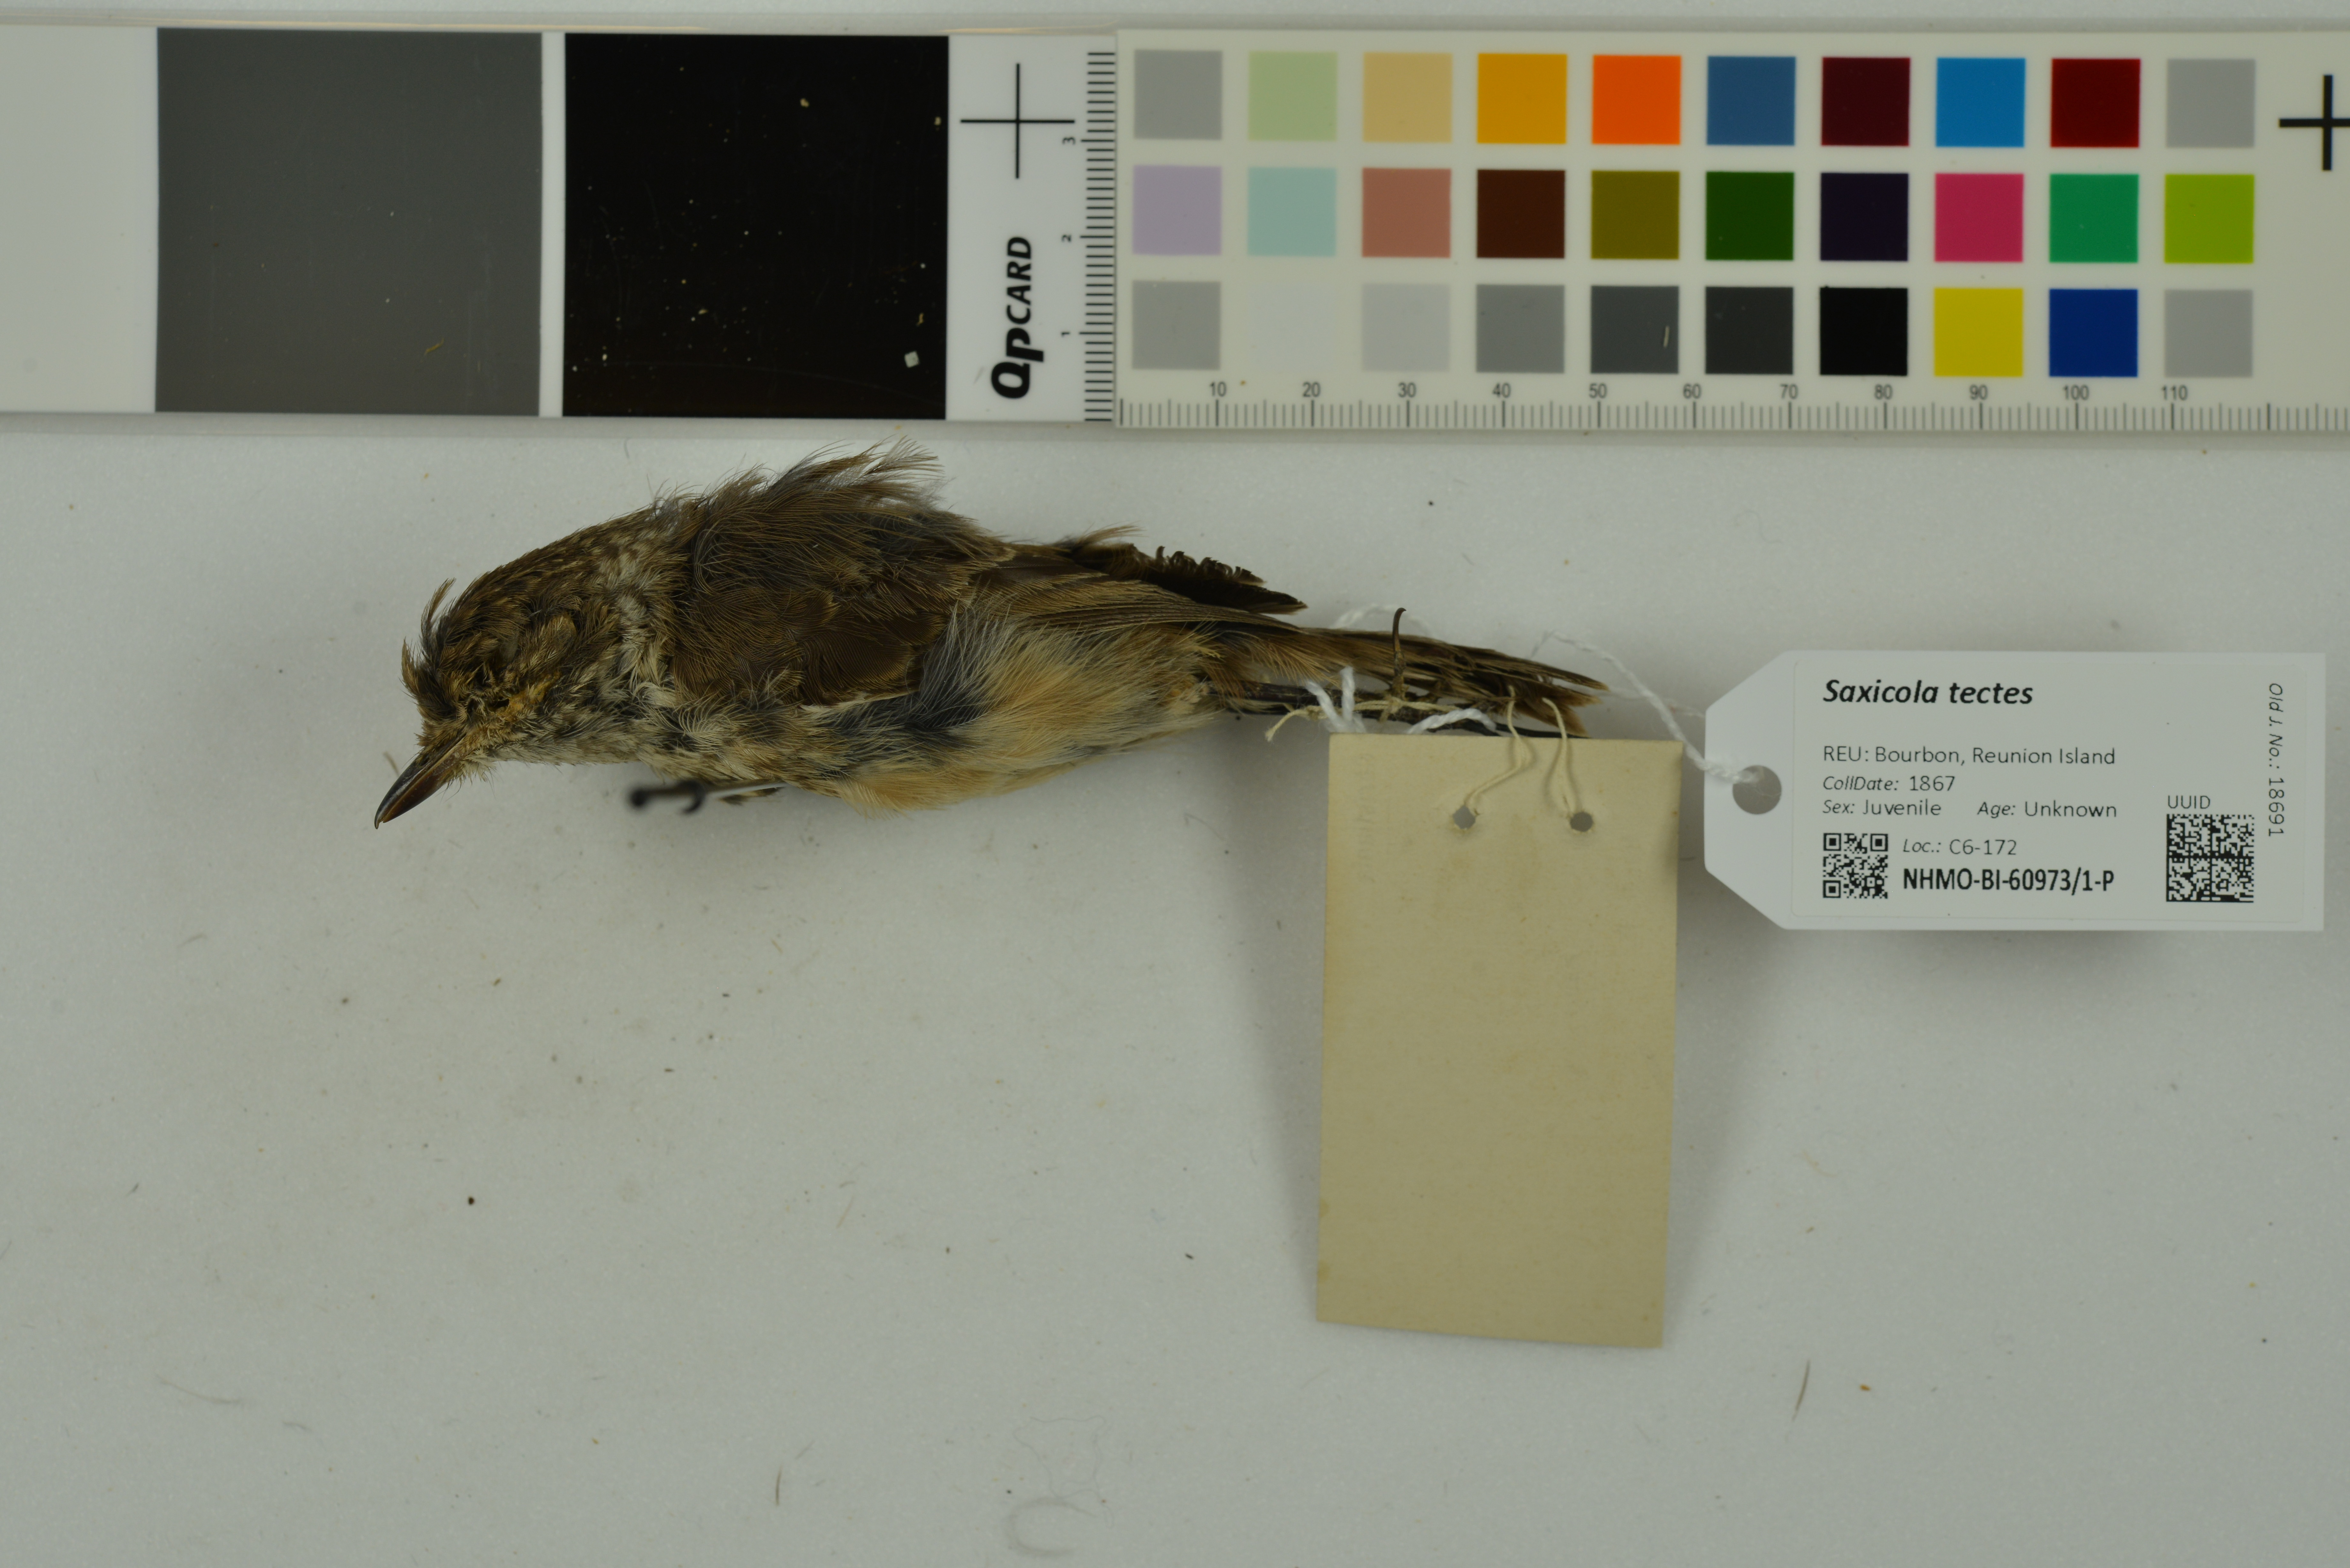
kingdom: Animalia
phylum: Chordata
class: Aves
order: Passeriformes
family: Muscicapidae
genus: Saxicola
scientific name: Saxicola tectes
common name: Reunion stonechat
